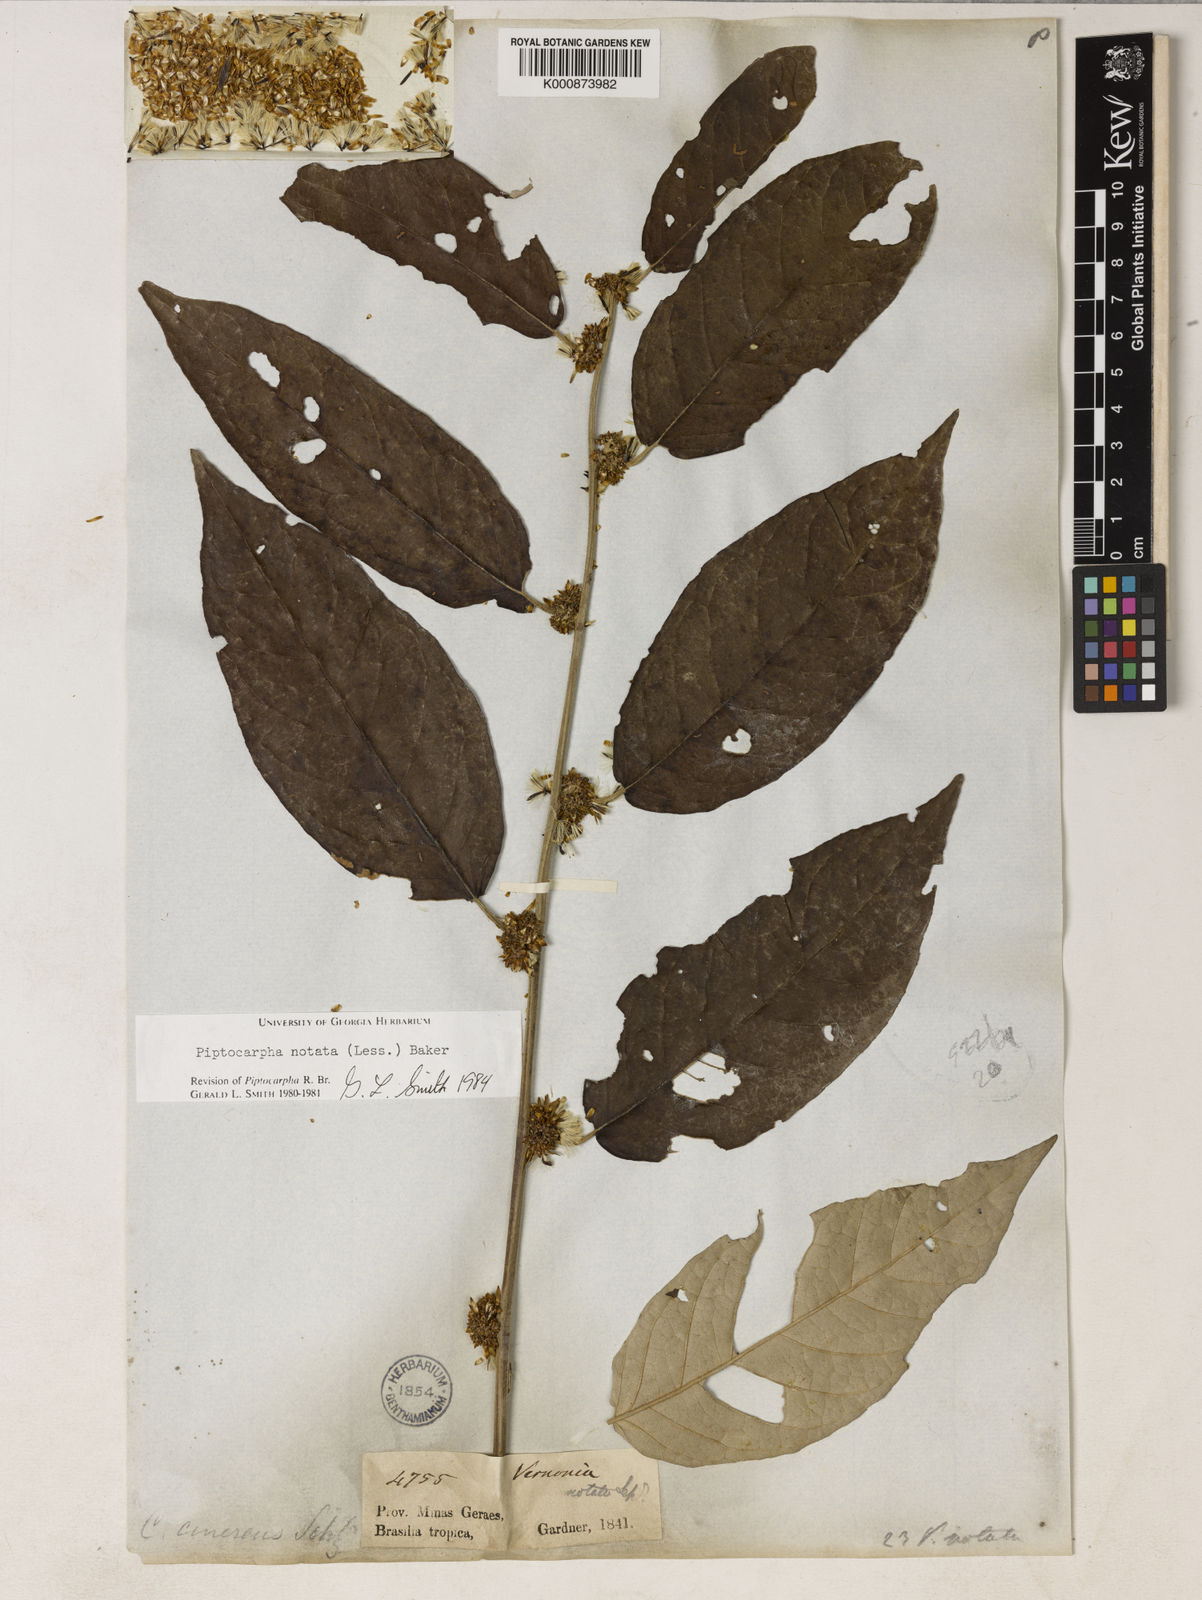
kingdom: Plantae
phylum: Tracheophyta
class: Magnoliopsida
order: Asterales
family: Asteraceae
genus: Piptocarpha
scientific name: Piptocarpha notata
